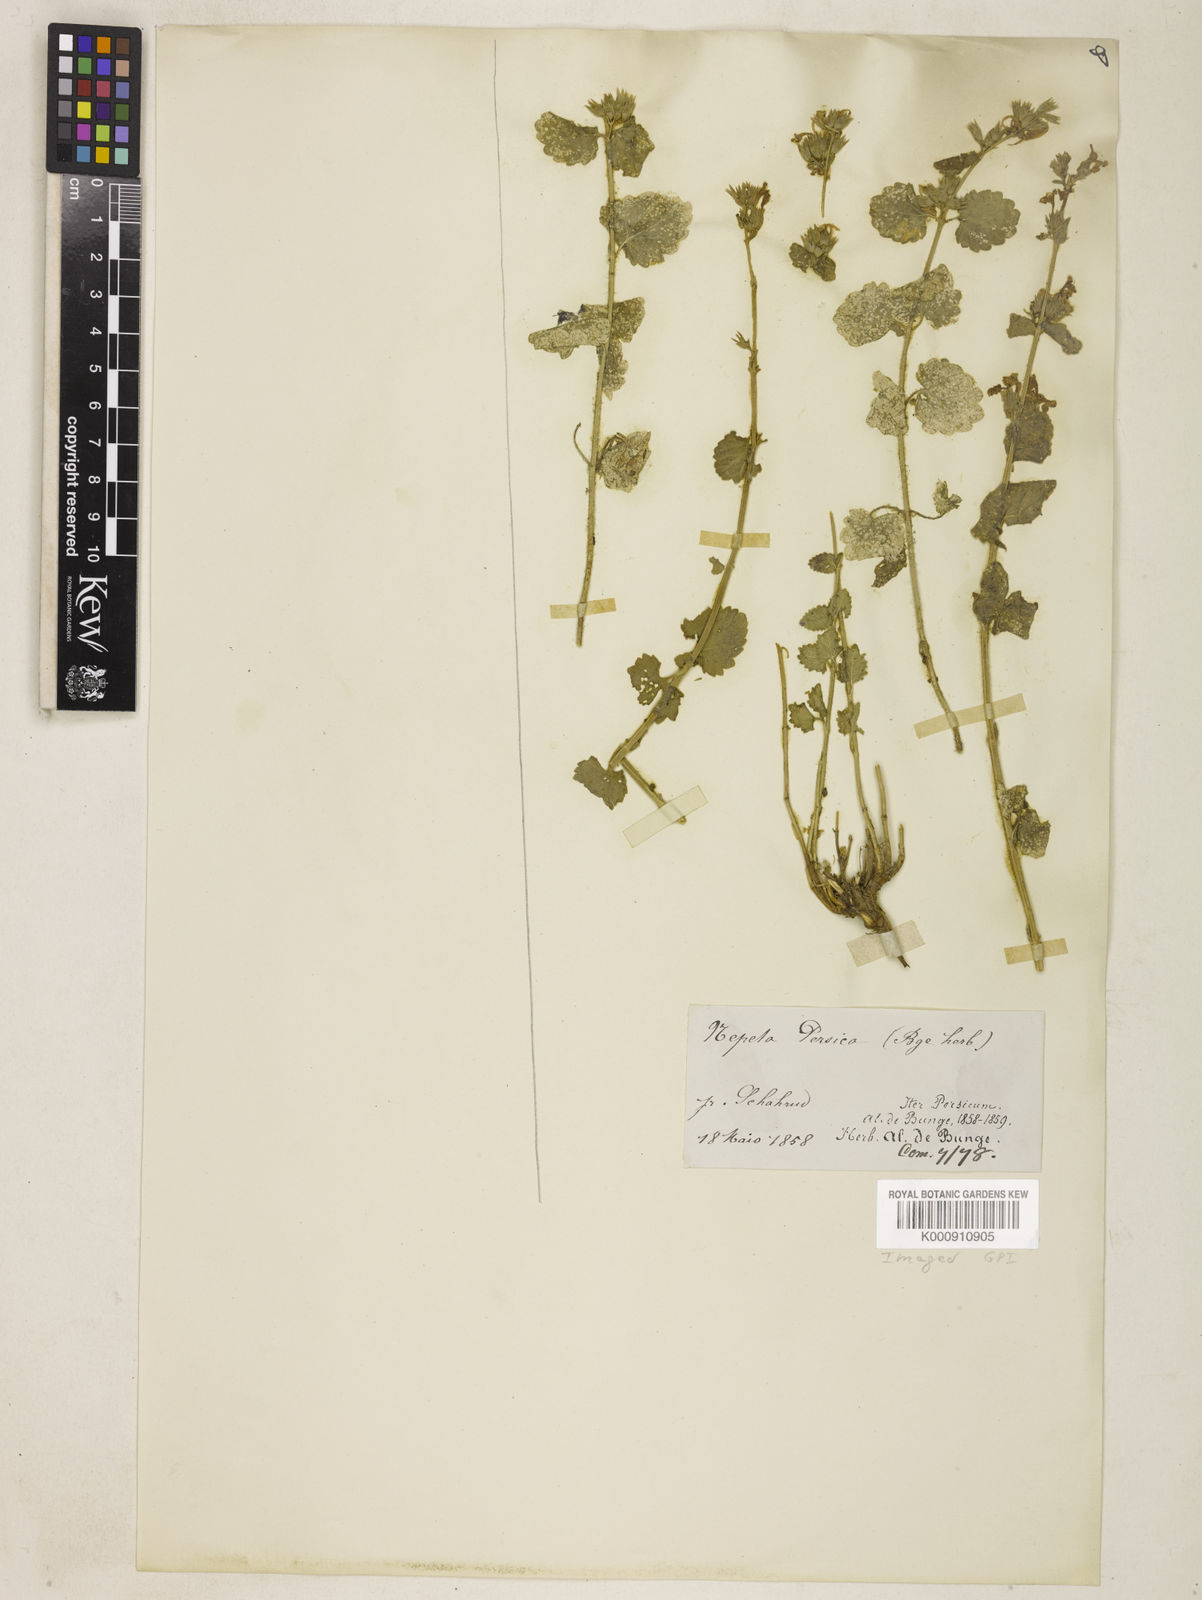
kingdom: Plantae
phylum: Tracheophyta
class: Magnoliopsida
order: Lamiales
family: Lamiaceae
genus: Nepeta
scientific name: Nepeta septemcrenata
